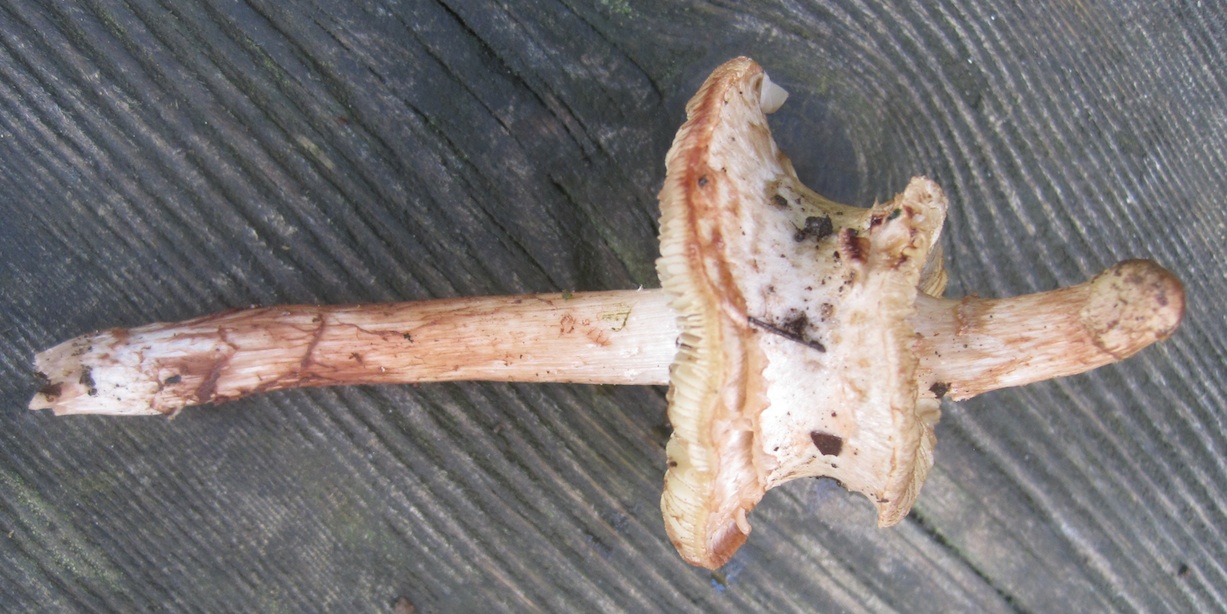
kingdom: Fungi
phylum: Basidiomycota
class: Agaricomycetes
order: Agaricales
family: Inocybaceae
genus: Inosperma
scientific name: Inosperma bongardii
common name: Bongards trævlhat
